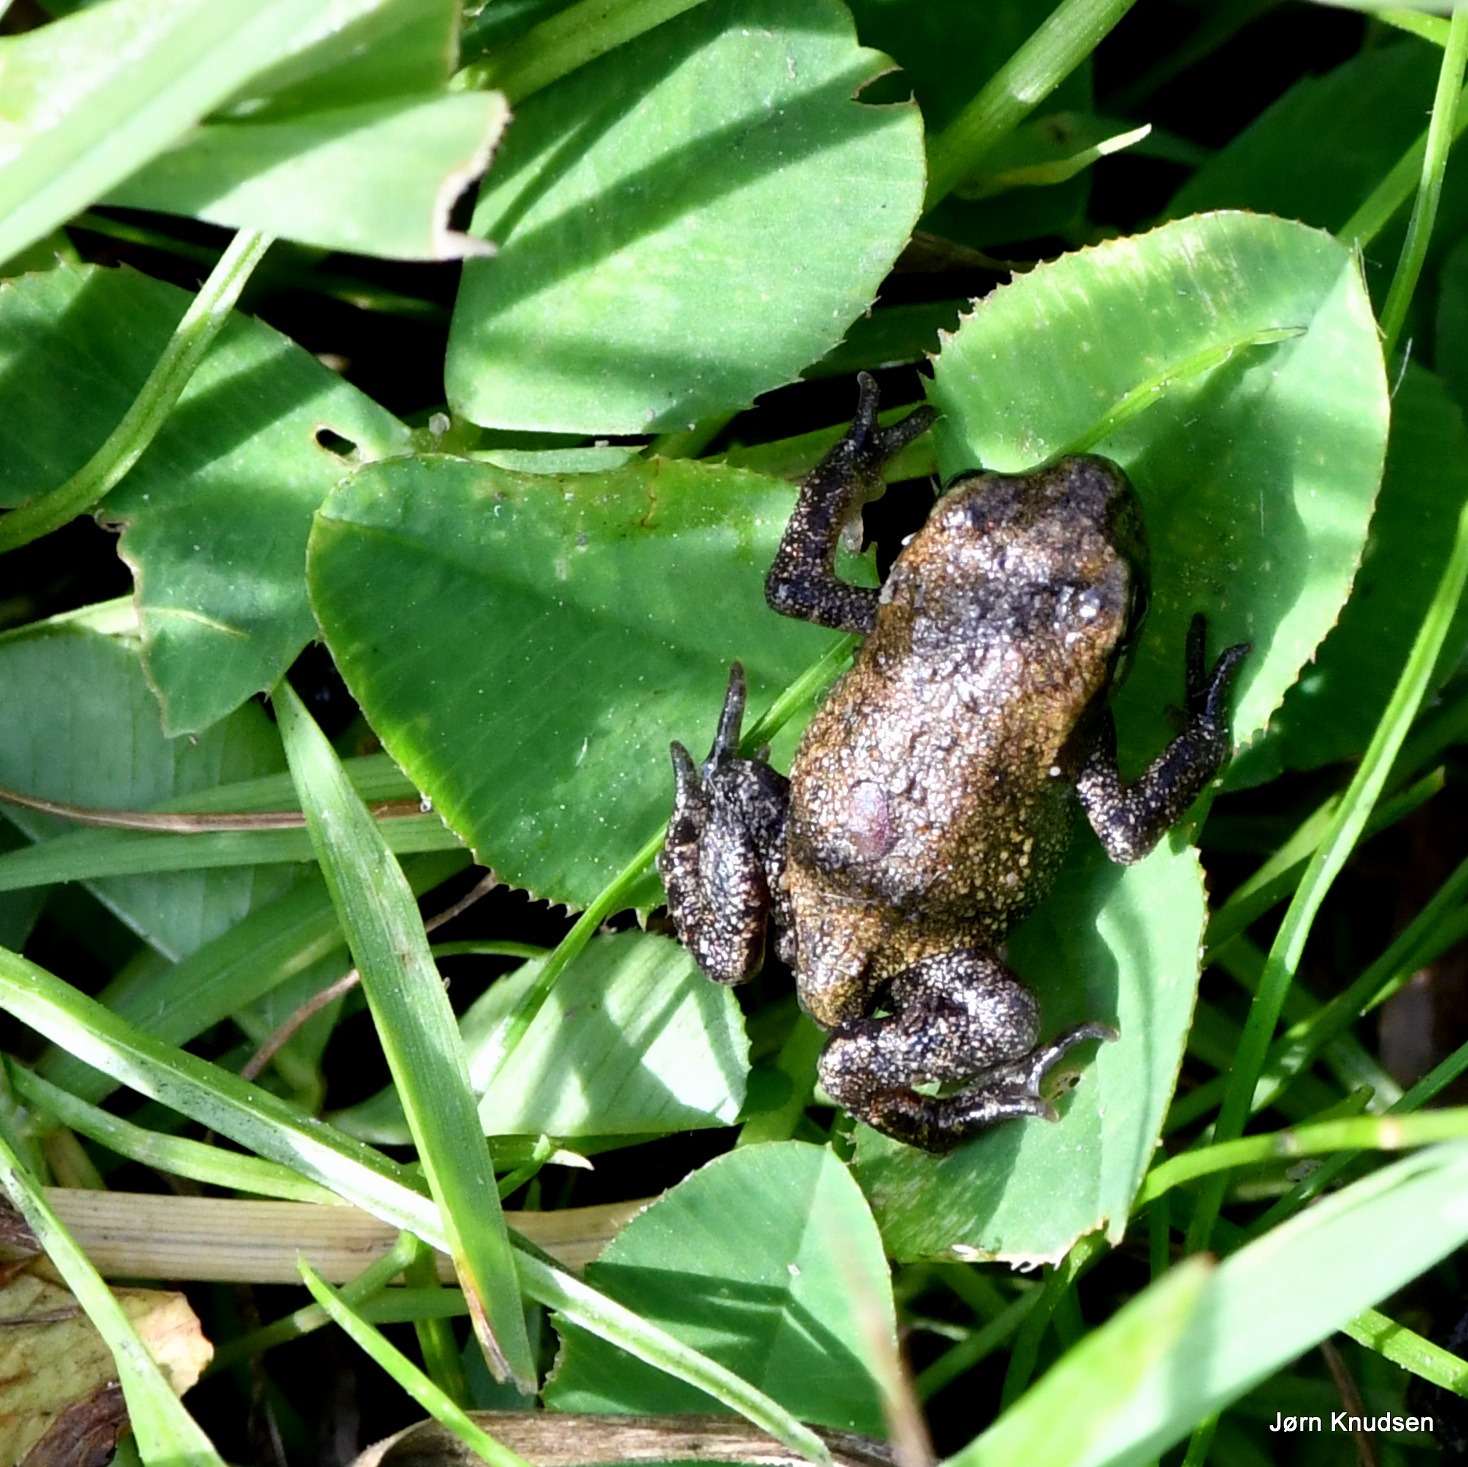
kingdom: Animalia
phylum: Chordata
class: Amphibia
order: Anura
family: Bufonidae
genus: Bufo
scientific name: Bufo bufo
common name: Skrubtudse
